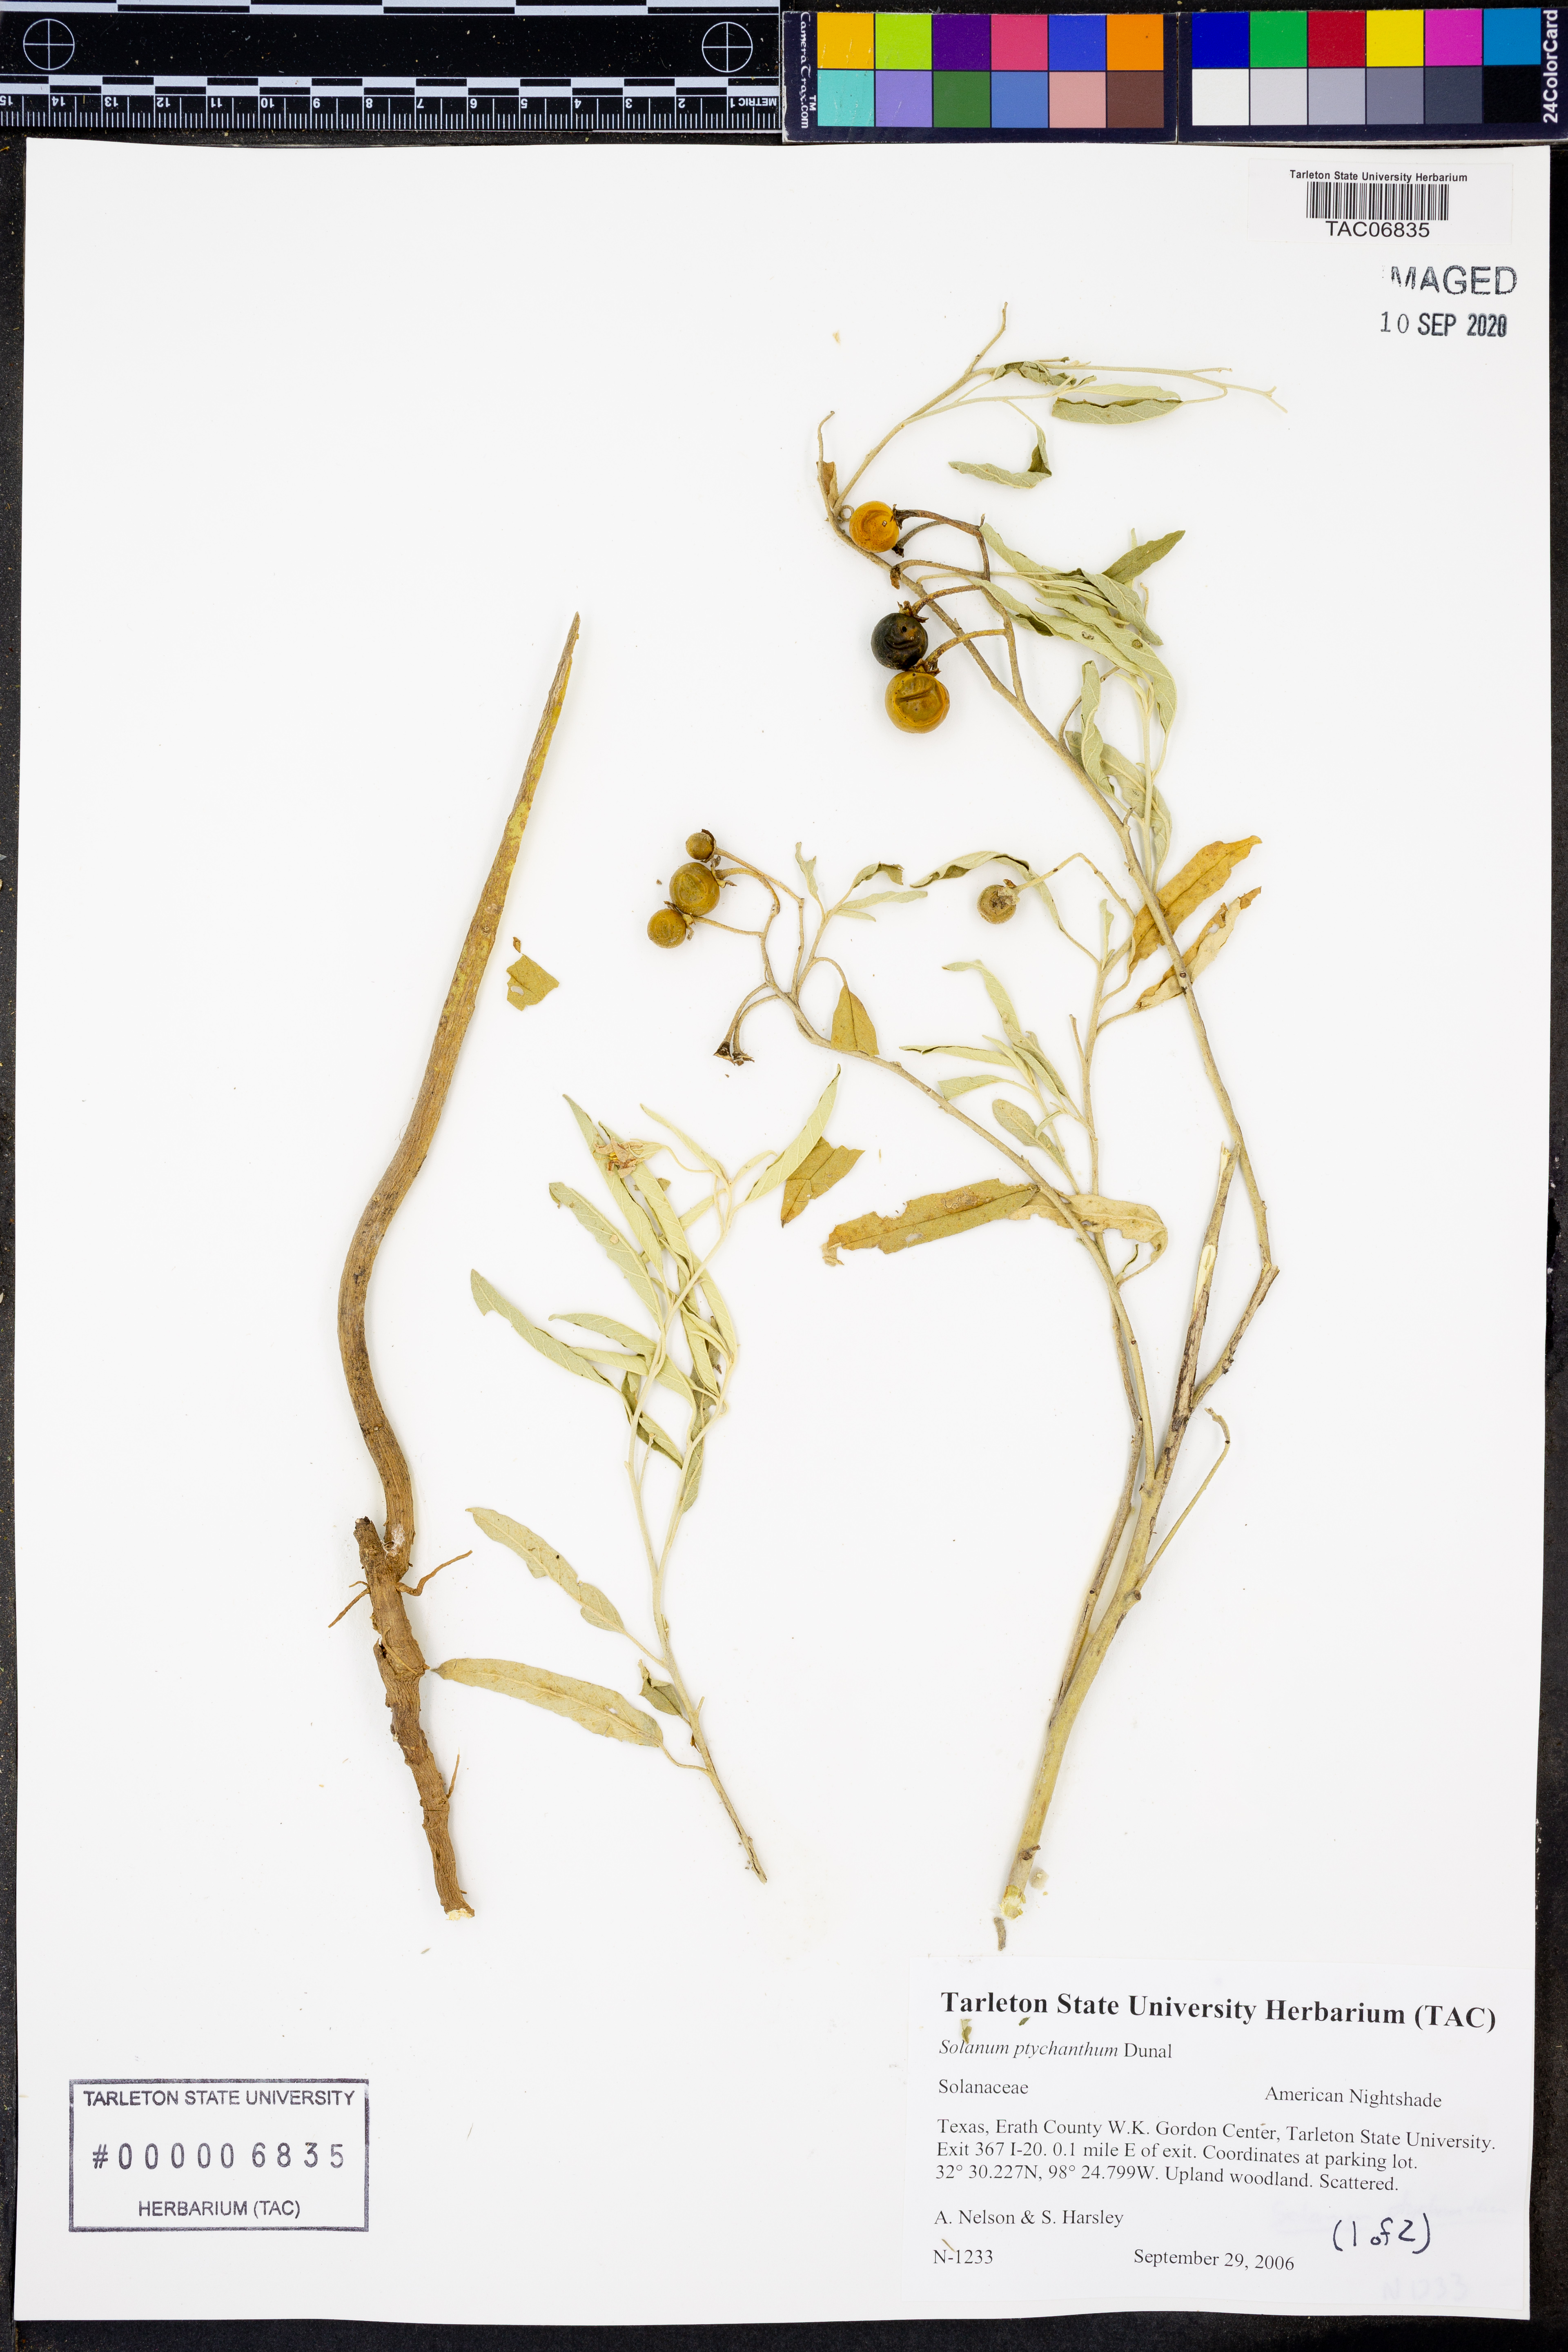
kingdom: Plantae
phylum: Tracheophyta
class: Magnoliopsida
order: Solanales
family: Solanaceae
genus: Solanum
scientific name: Solanum americanum
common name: American black nightshade
